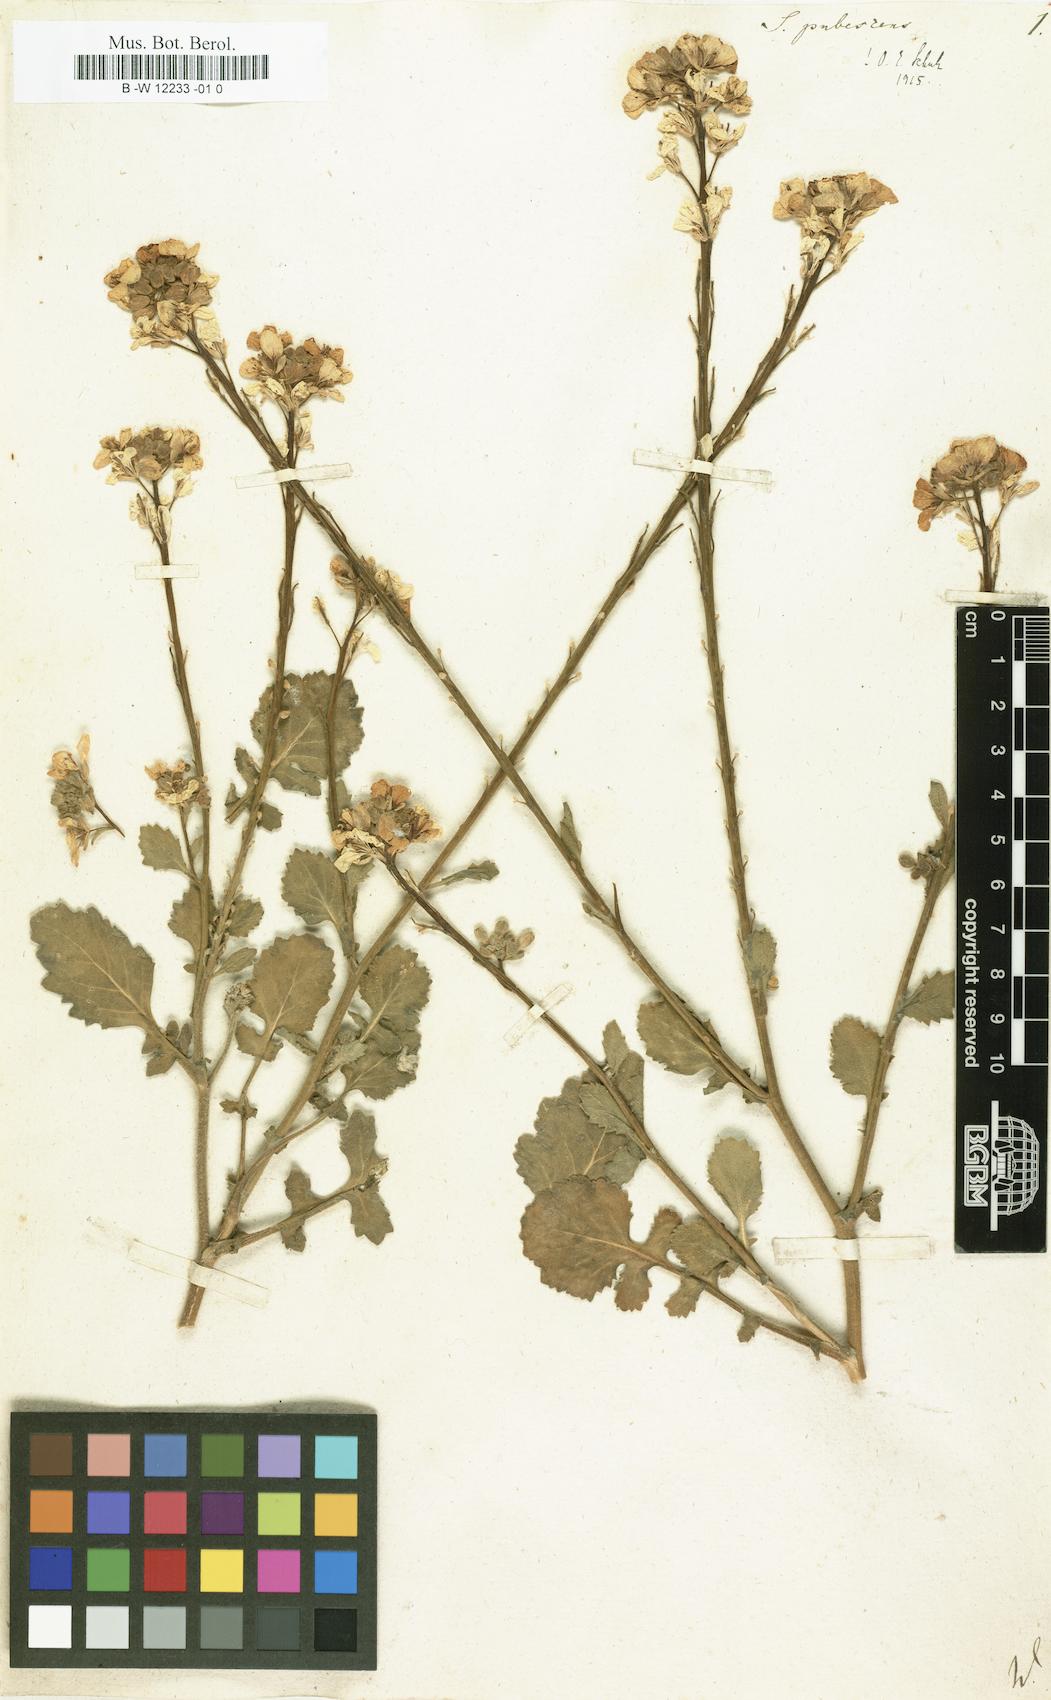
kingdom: Plantae
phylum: Tracheophyta
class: Magnoliopsida
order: Brassicales
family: Brassicaceae
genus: Sinapis
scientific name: Sinapis pubescens
